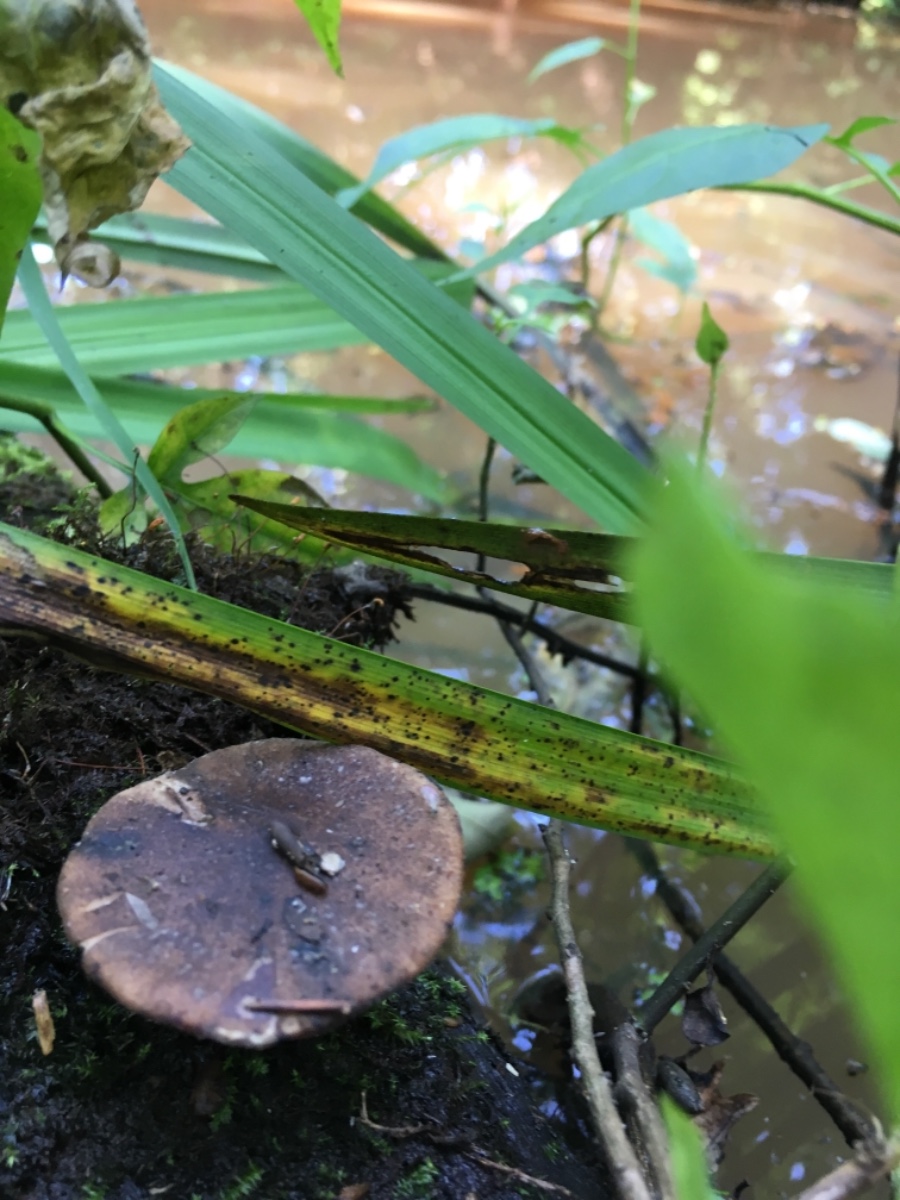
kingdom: Fungi
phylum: Basidiomycota
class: Agaricomycetes
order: Polyporales
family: Polyporaceae
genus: Lentinus
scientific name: Lentinus substrictus
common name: forårs-stilkporesvamp
